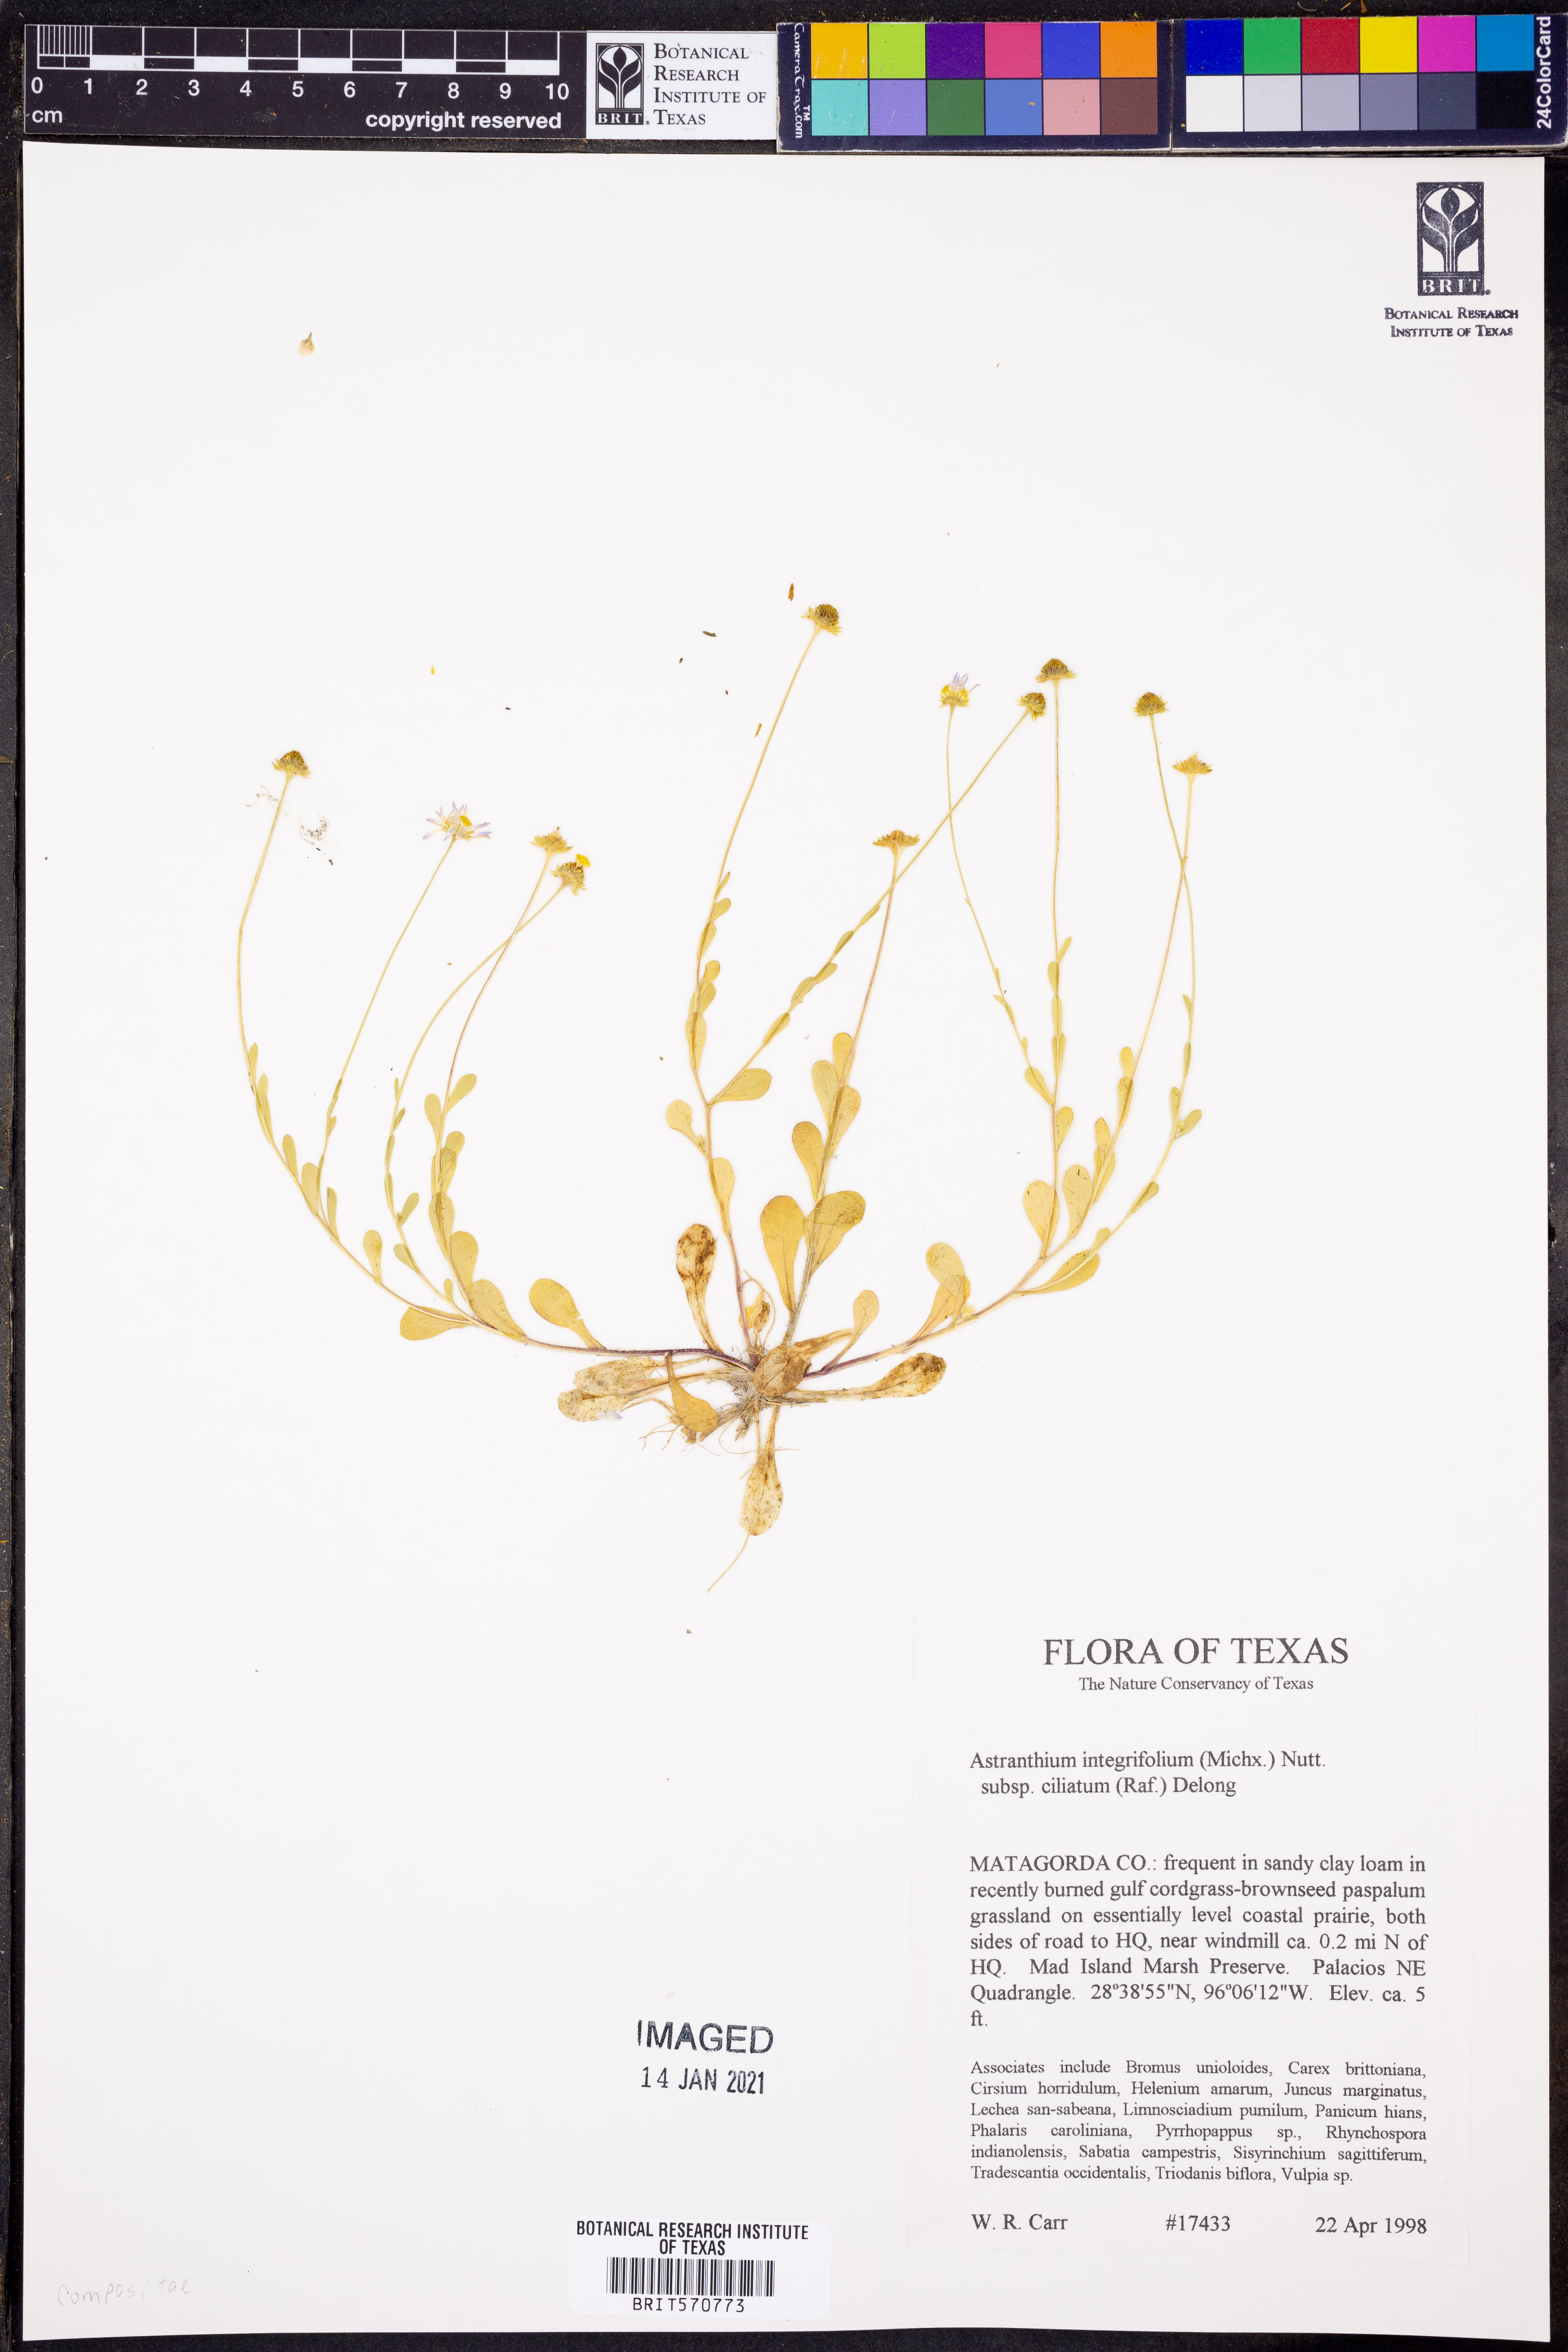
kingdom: Plantae
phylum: Tracheophyta
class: Magnoliopsida
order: Asterales
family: Asteraceae
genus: Astranthium
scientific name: Astranthium ciliatum
